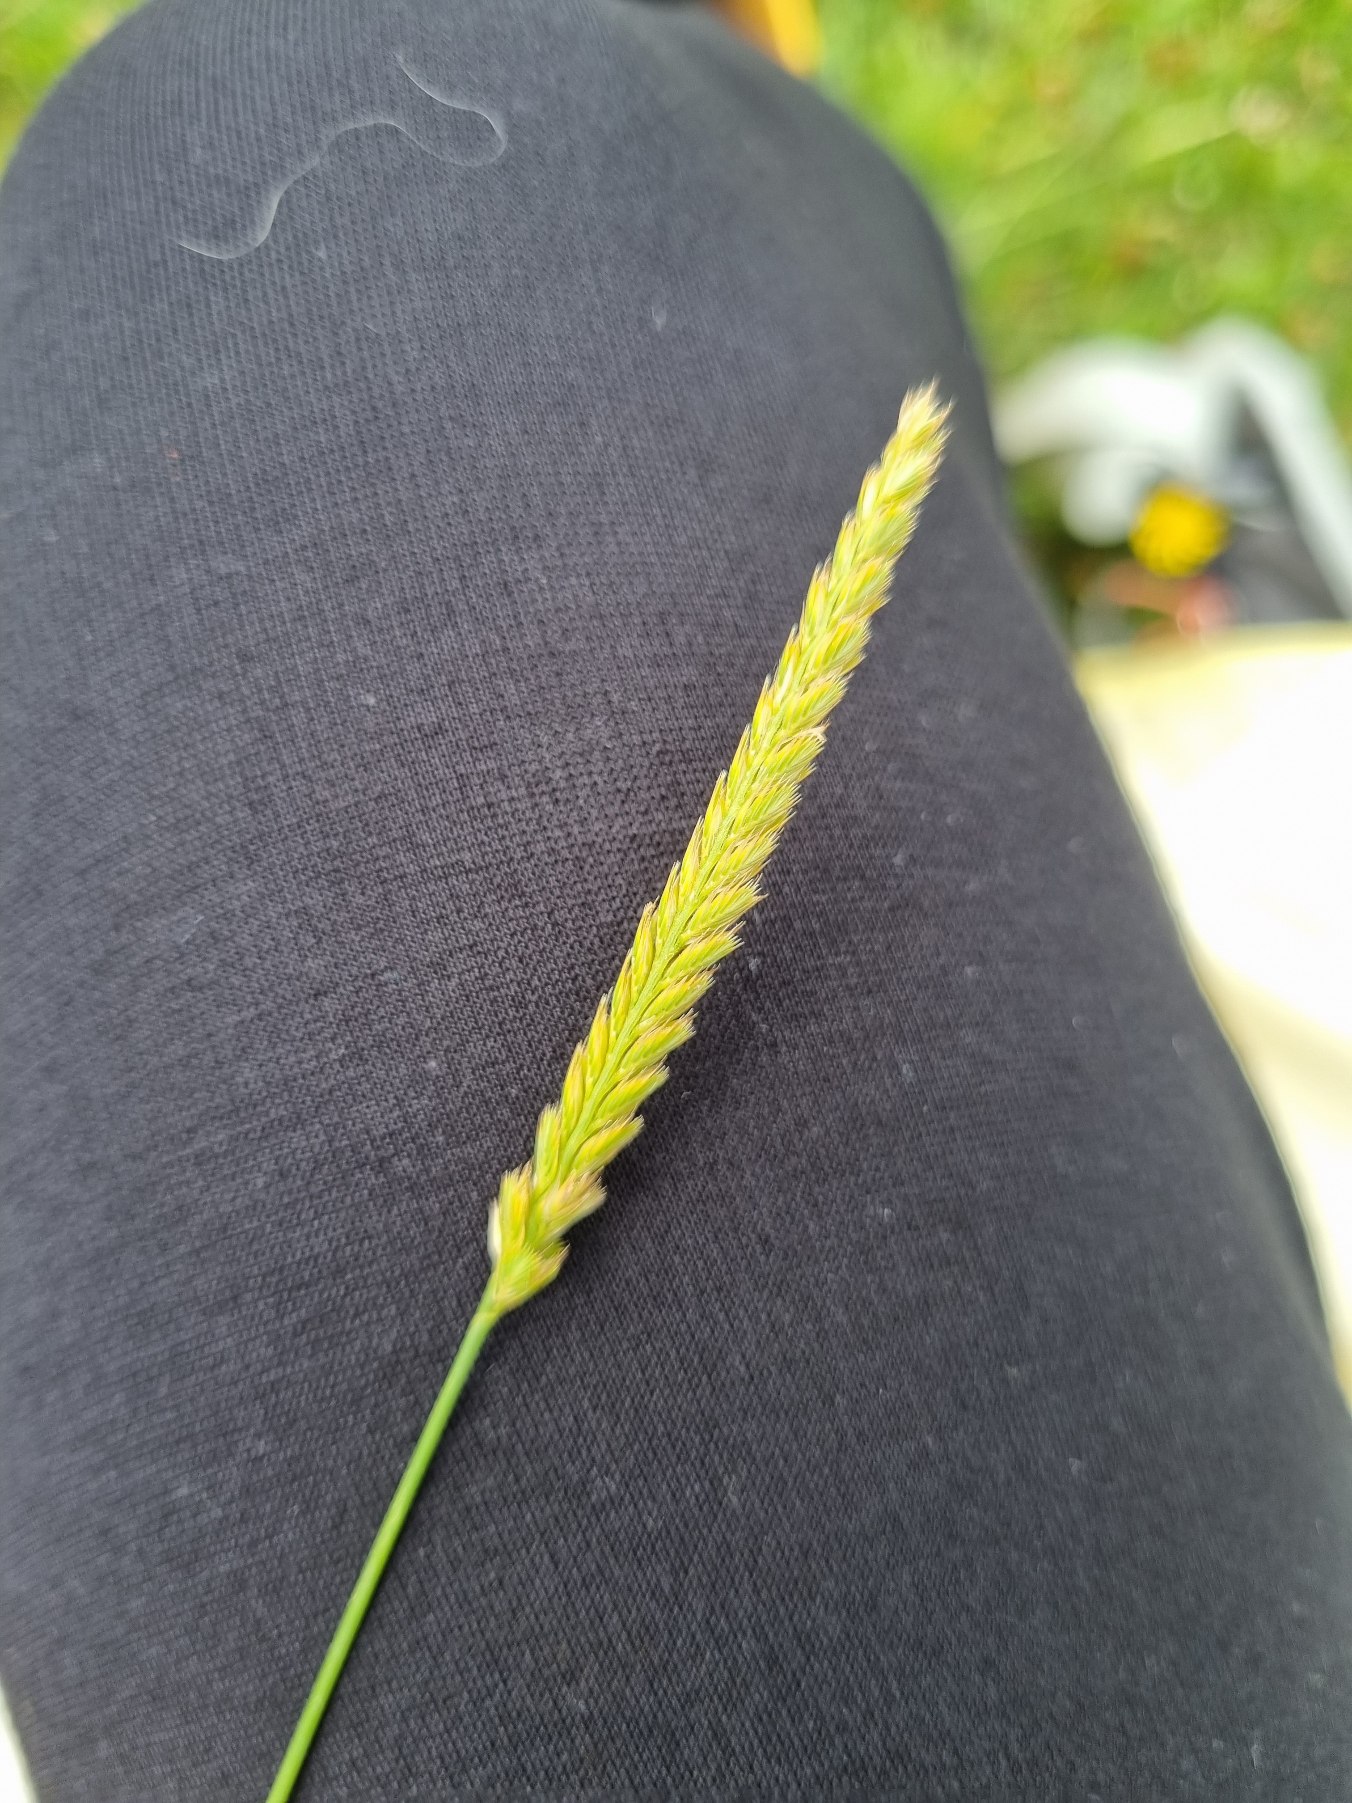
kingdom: Plantae
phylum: Tracheophyta
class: Liliopsida
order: Poales
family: Poaceae
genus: Cynosurus
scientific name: Cynosurus cristatus
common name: Kamgræs
